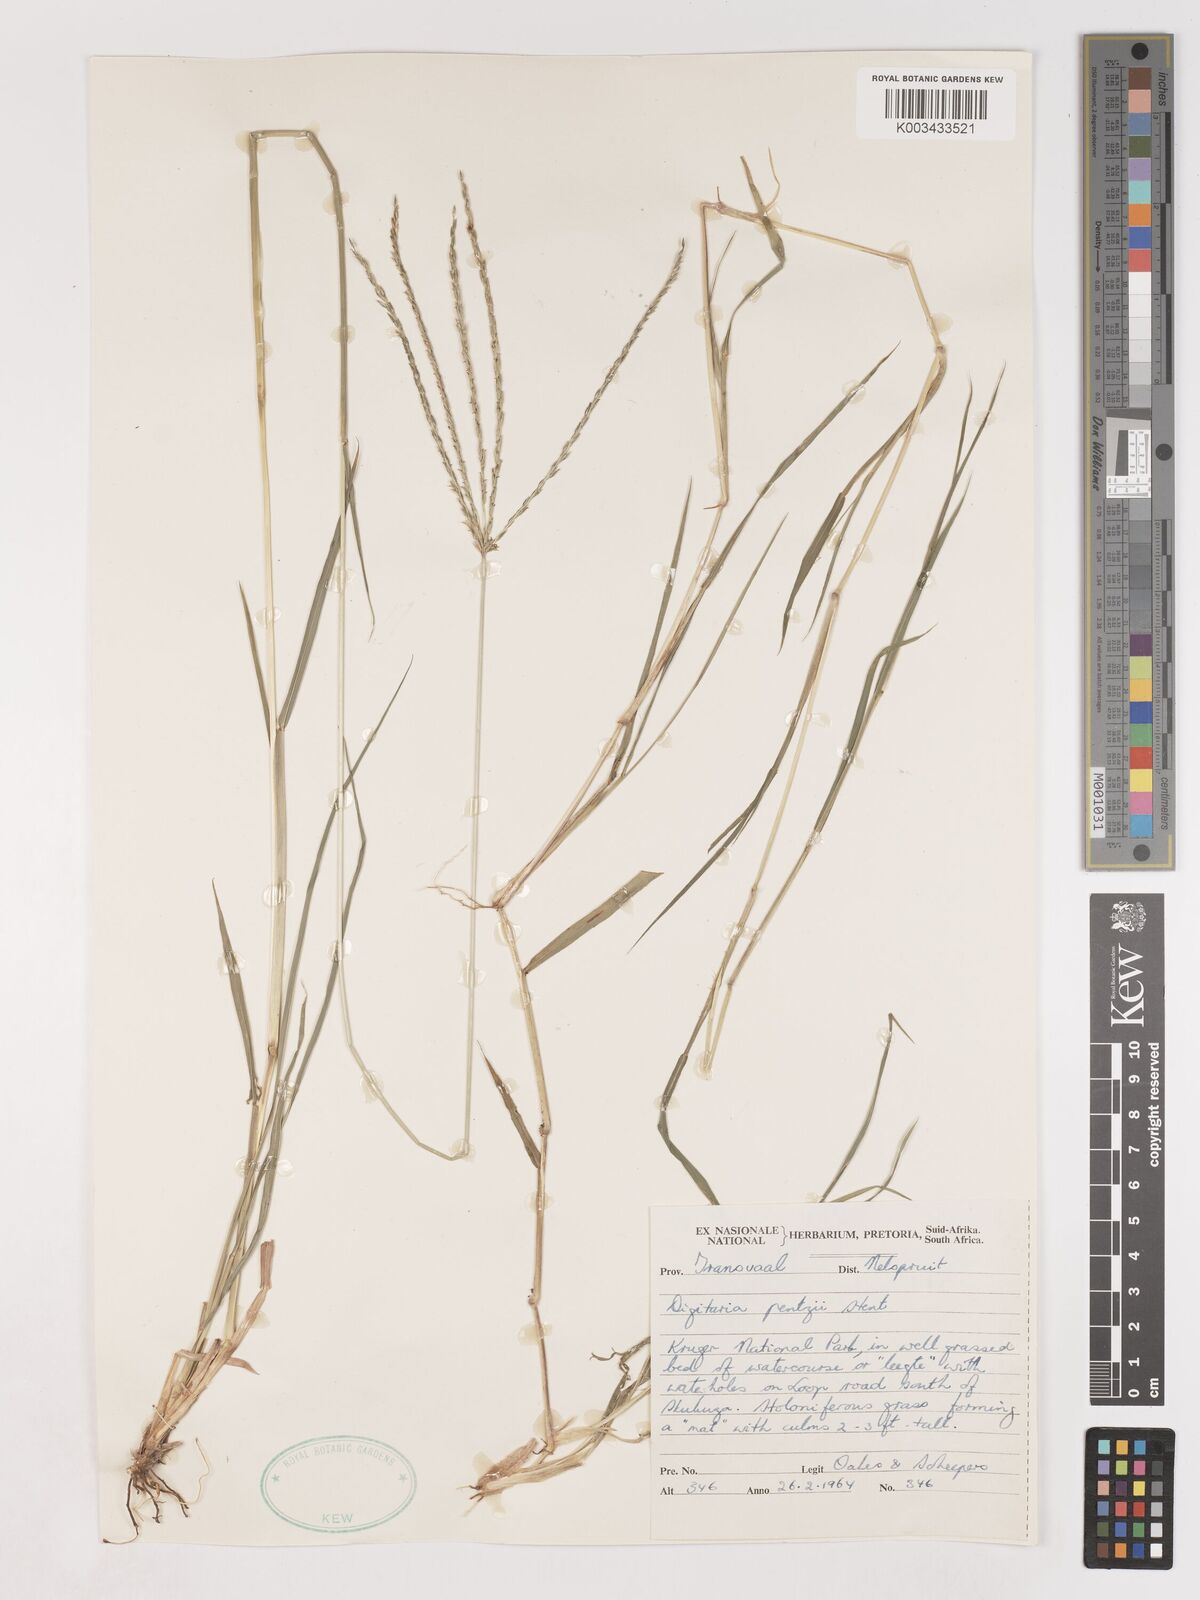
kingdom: Plantae
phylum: Tracheophyta
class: Liliopsida
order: Poales
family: Poaceae
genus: Digitaria
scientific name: Digitaria eriantha
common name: Digitgrass
